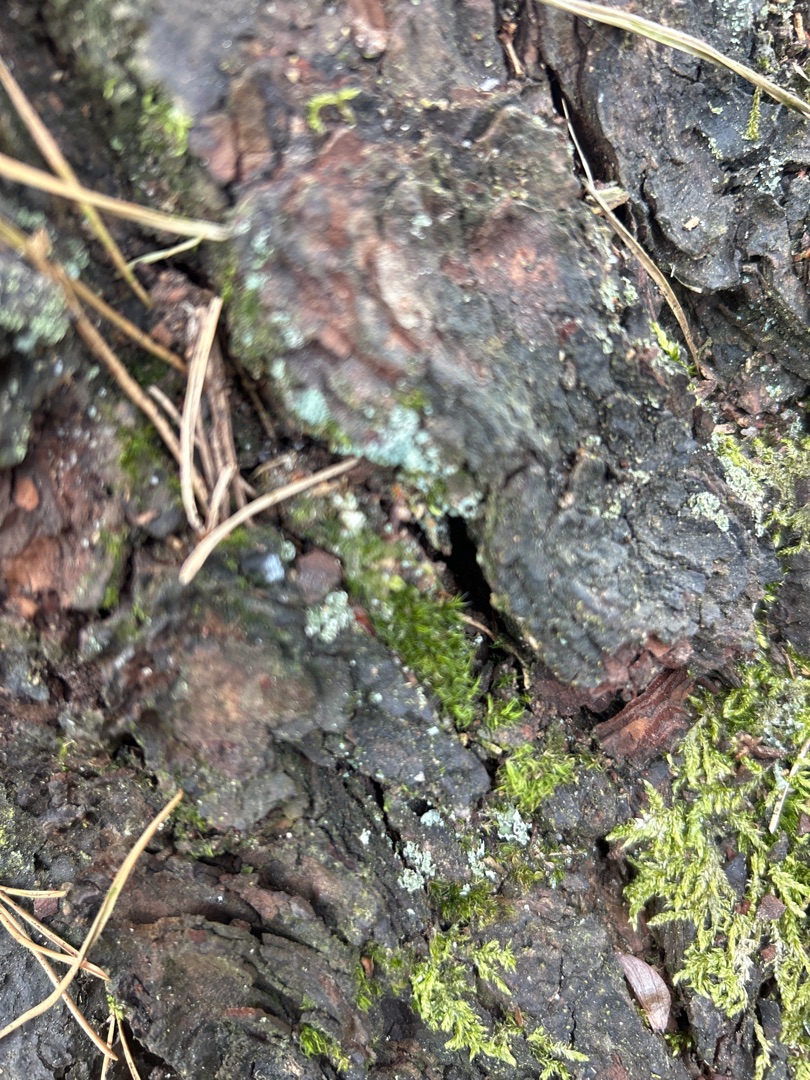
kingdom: Plantae
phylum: Bryophyta
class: Bryopsida
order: Hypnales
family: Hypnaceae
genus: Hypnum
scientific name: Hypnum
